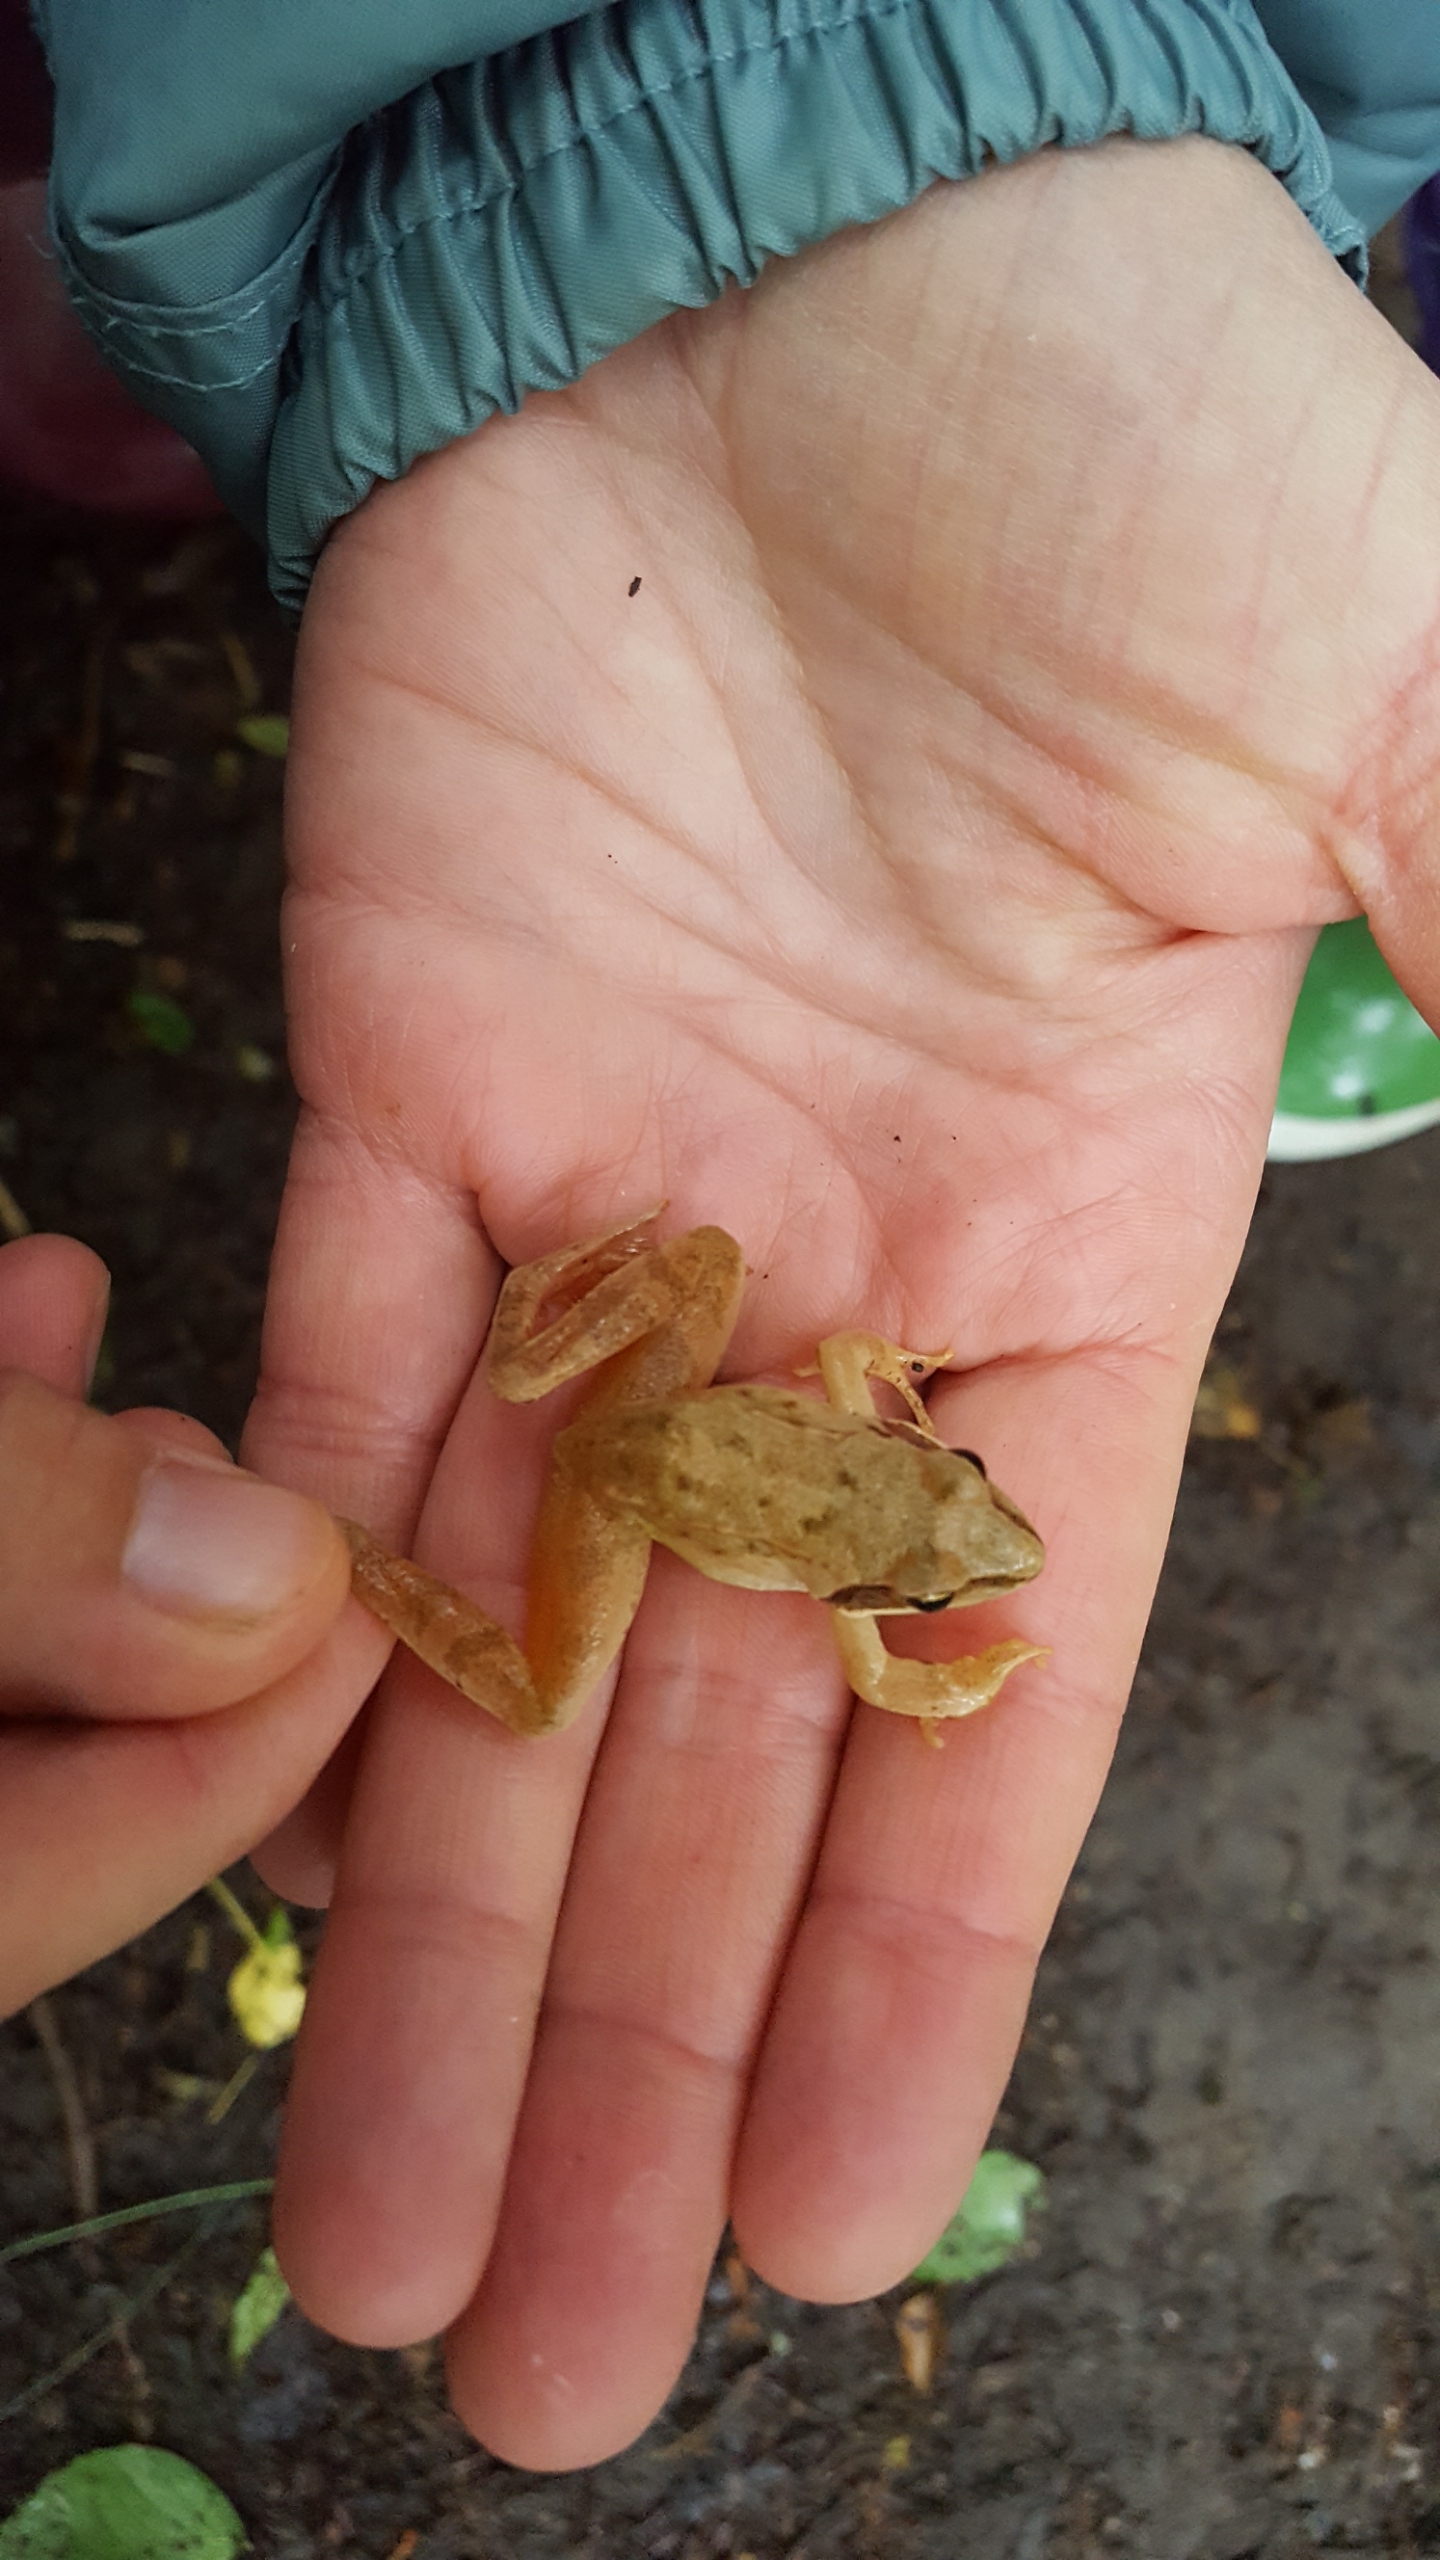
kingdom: Animalia
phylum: Chordata
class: Amphibia
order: Anura
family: Ranidae
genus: Rana
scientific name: Rana dalmatina
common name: Springfrø
